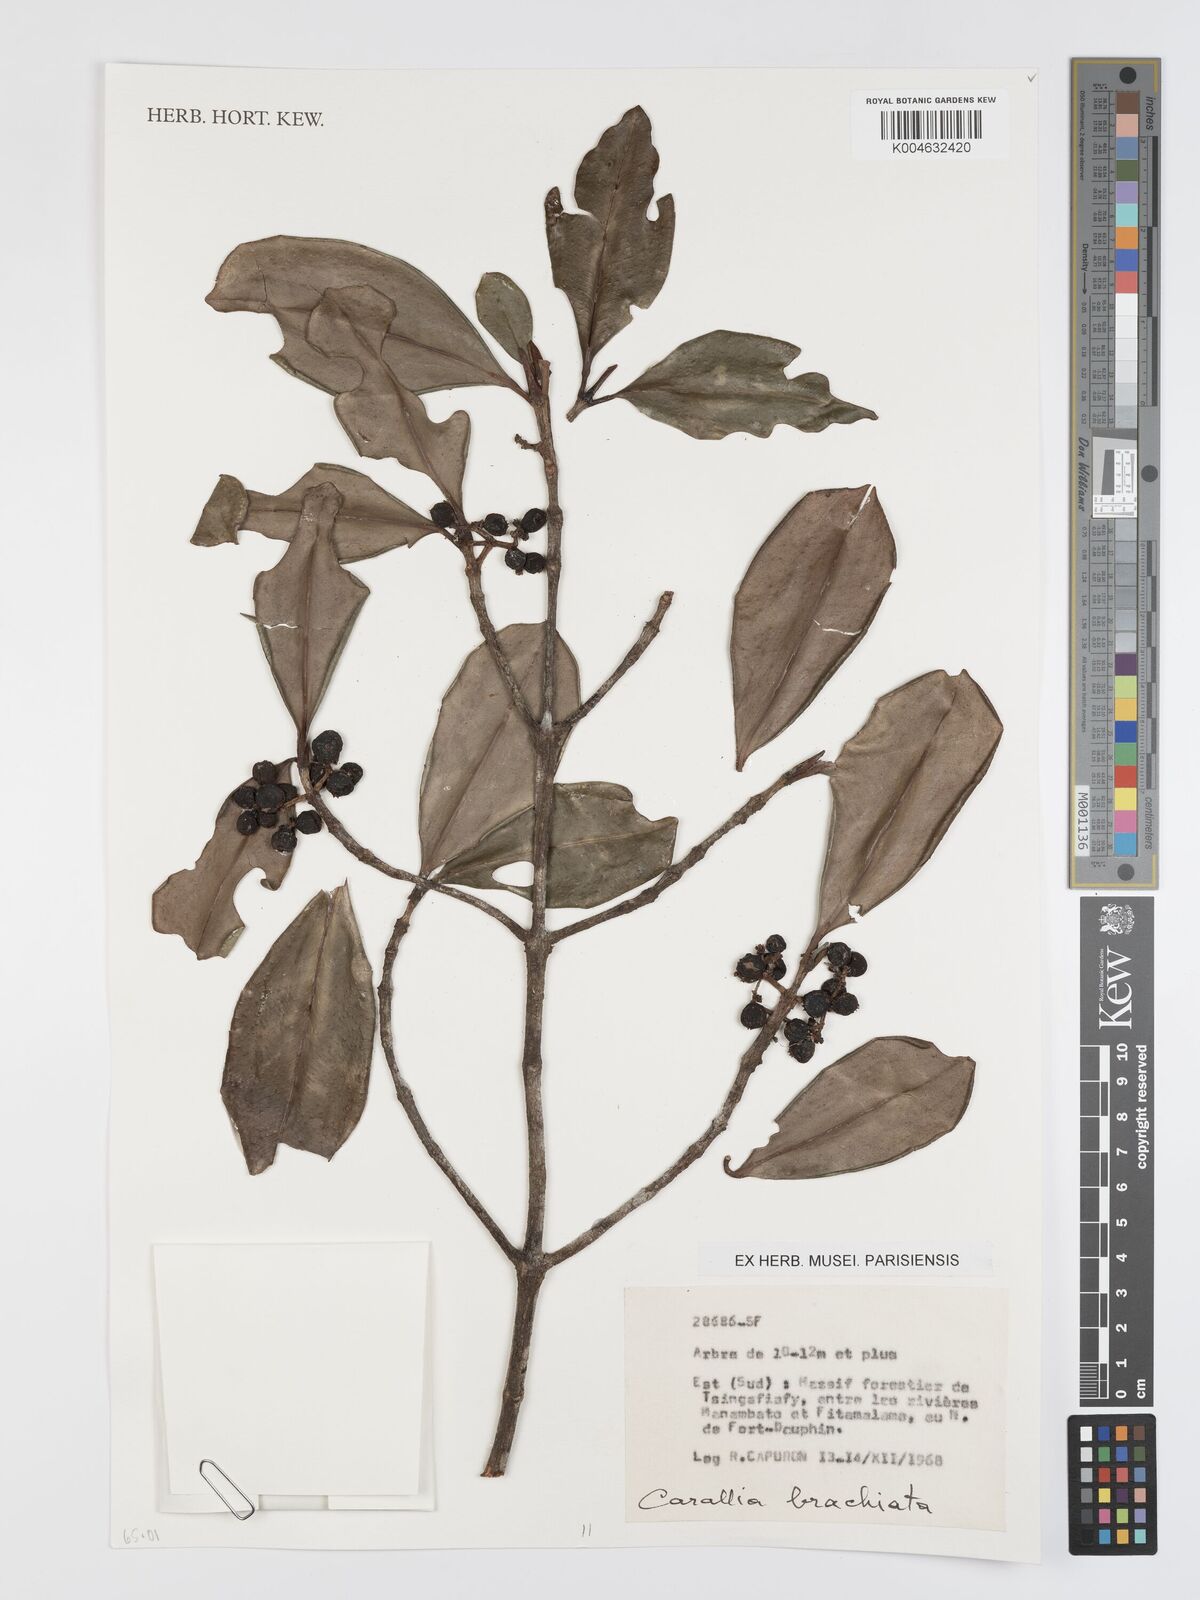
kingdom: Plantae
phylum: Tracheophyta
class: Magnoliopsida
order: Malpighiales
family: Rhizophoraceae
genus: Carallia
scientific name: Carallia brachiata
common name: Carallawood
